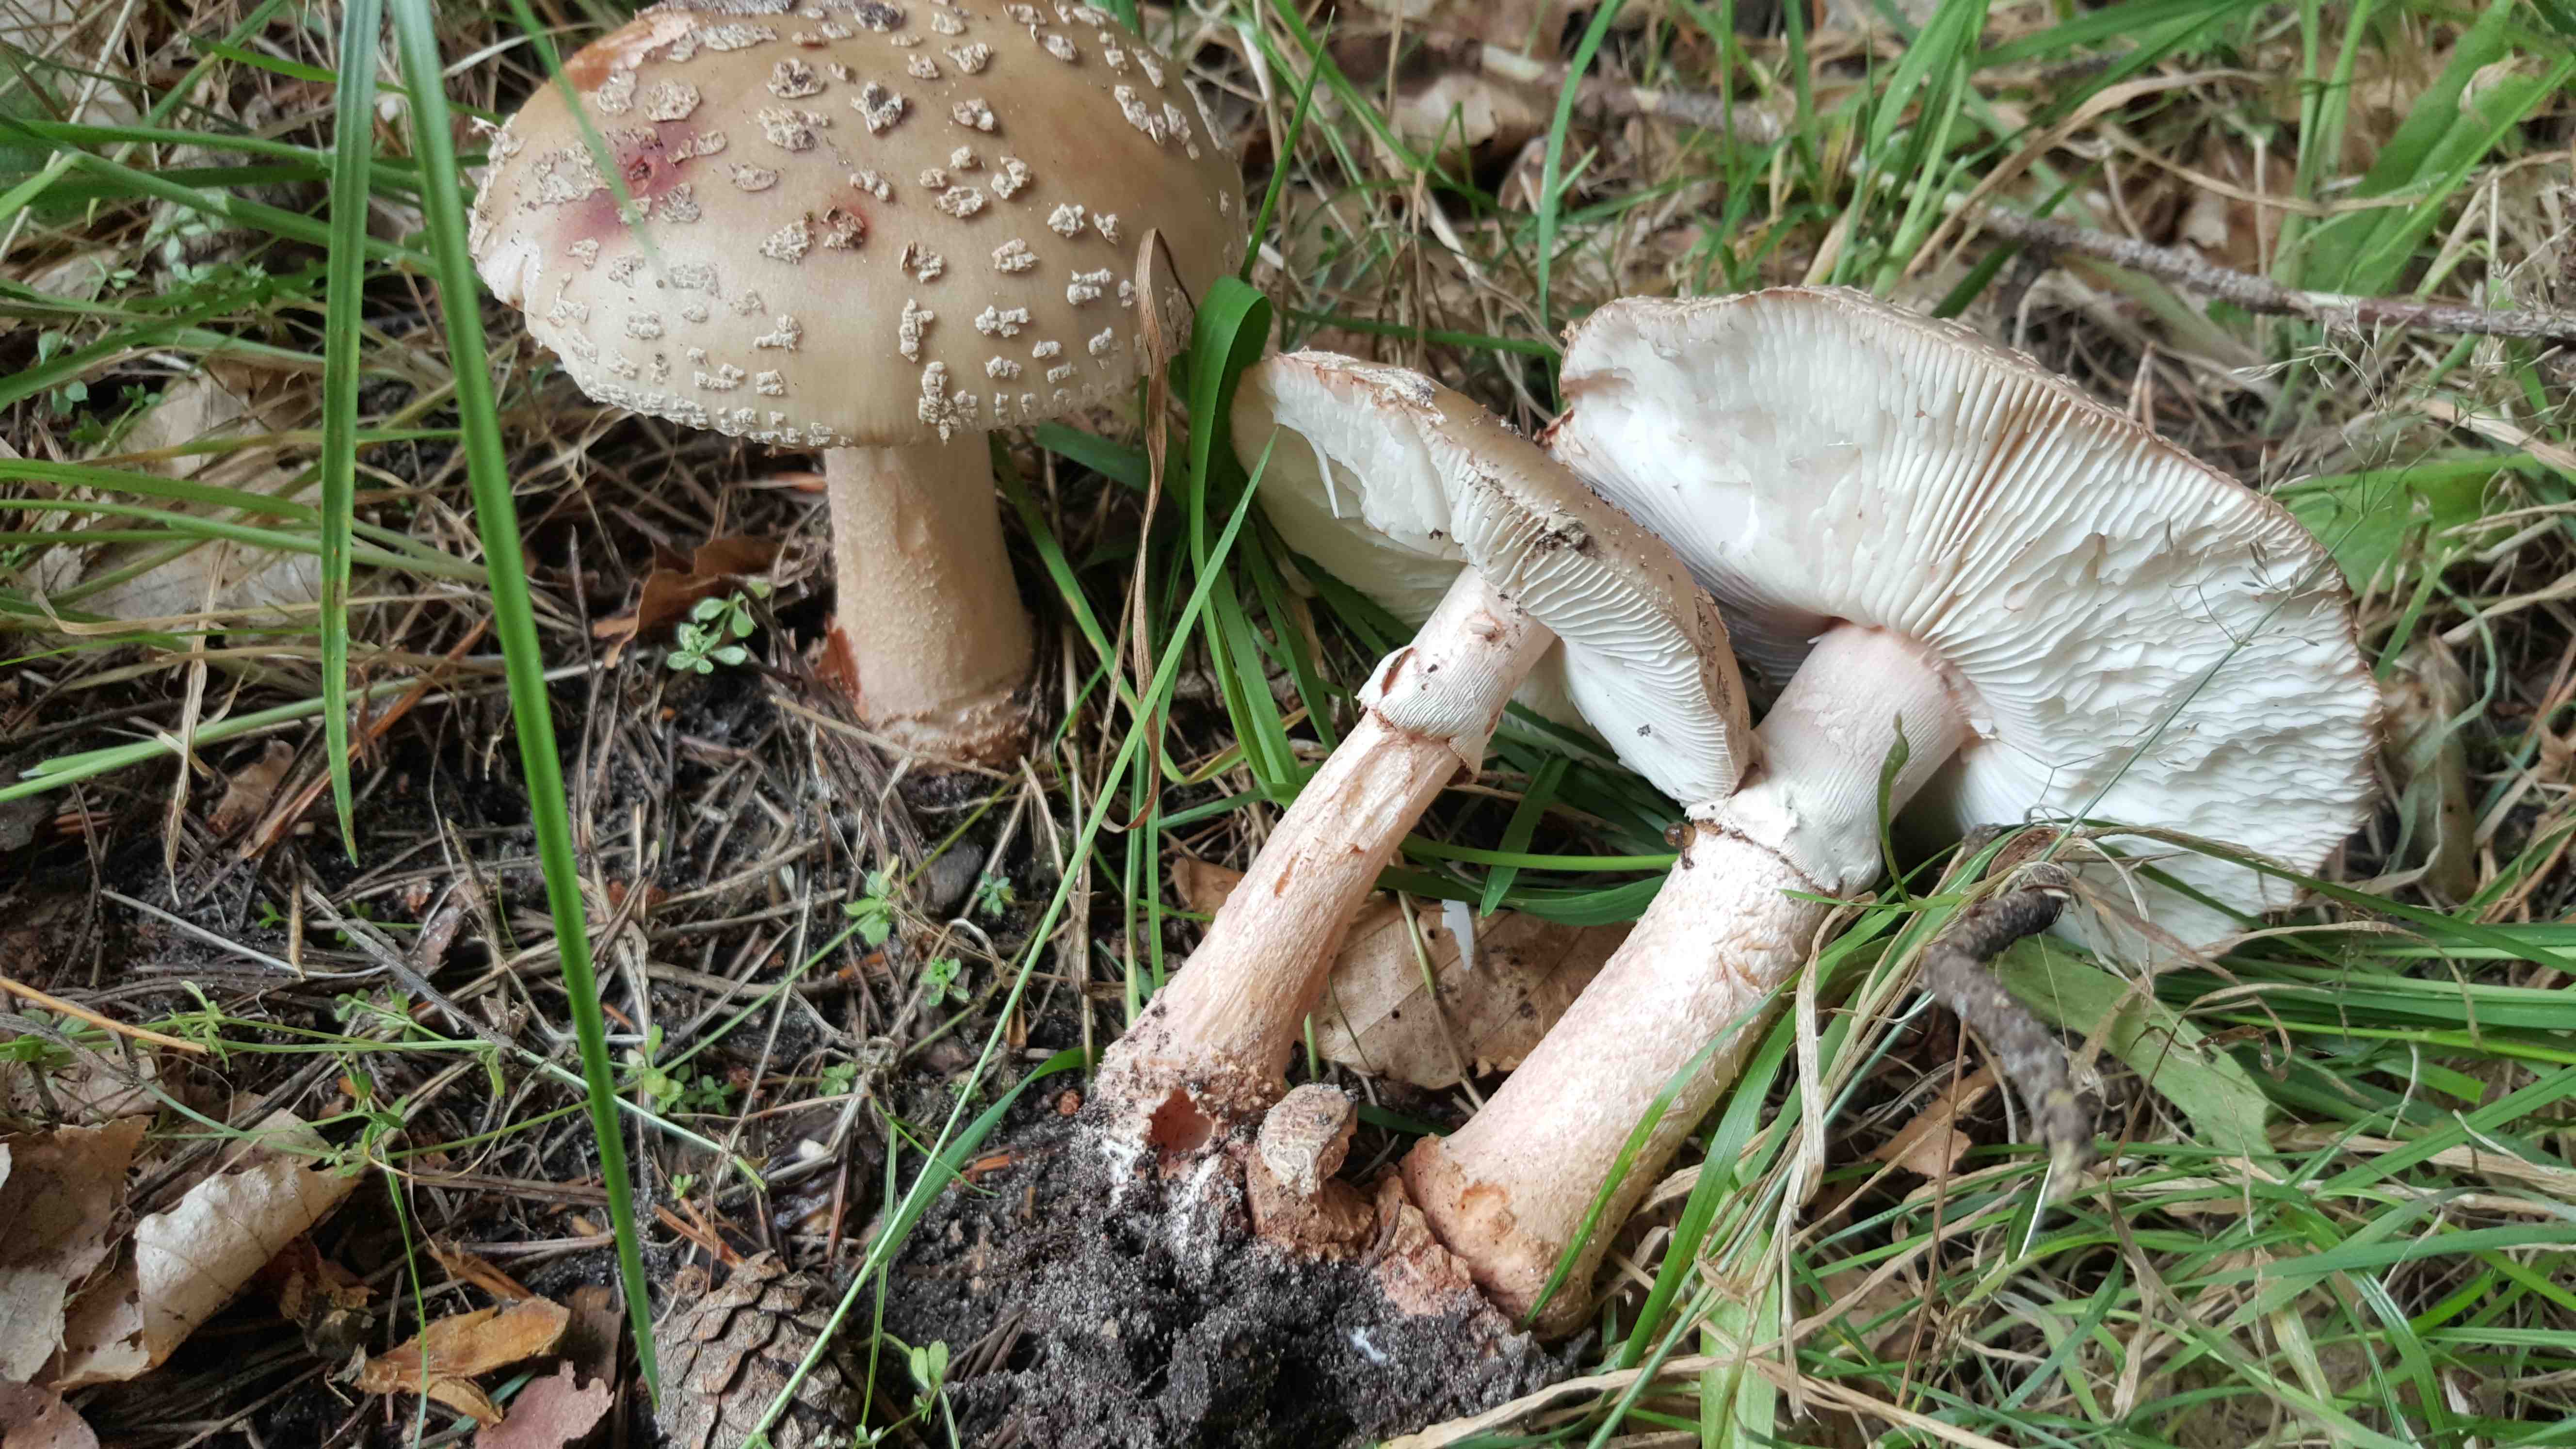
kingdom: Fungi
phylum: Basidiomycota
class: Agaricomycetes
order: Agaricales
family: Amanitaceae
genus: Amanita
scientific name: Amanita rubescens
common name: rødmende fluesvamp
